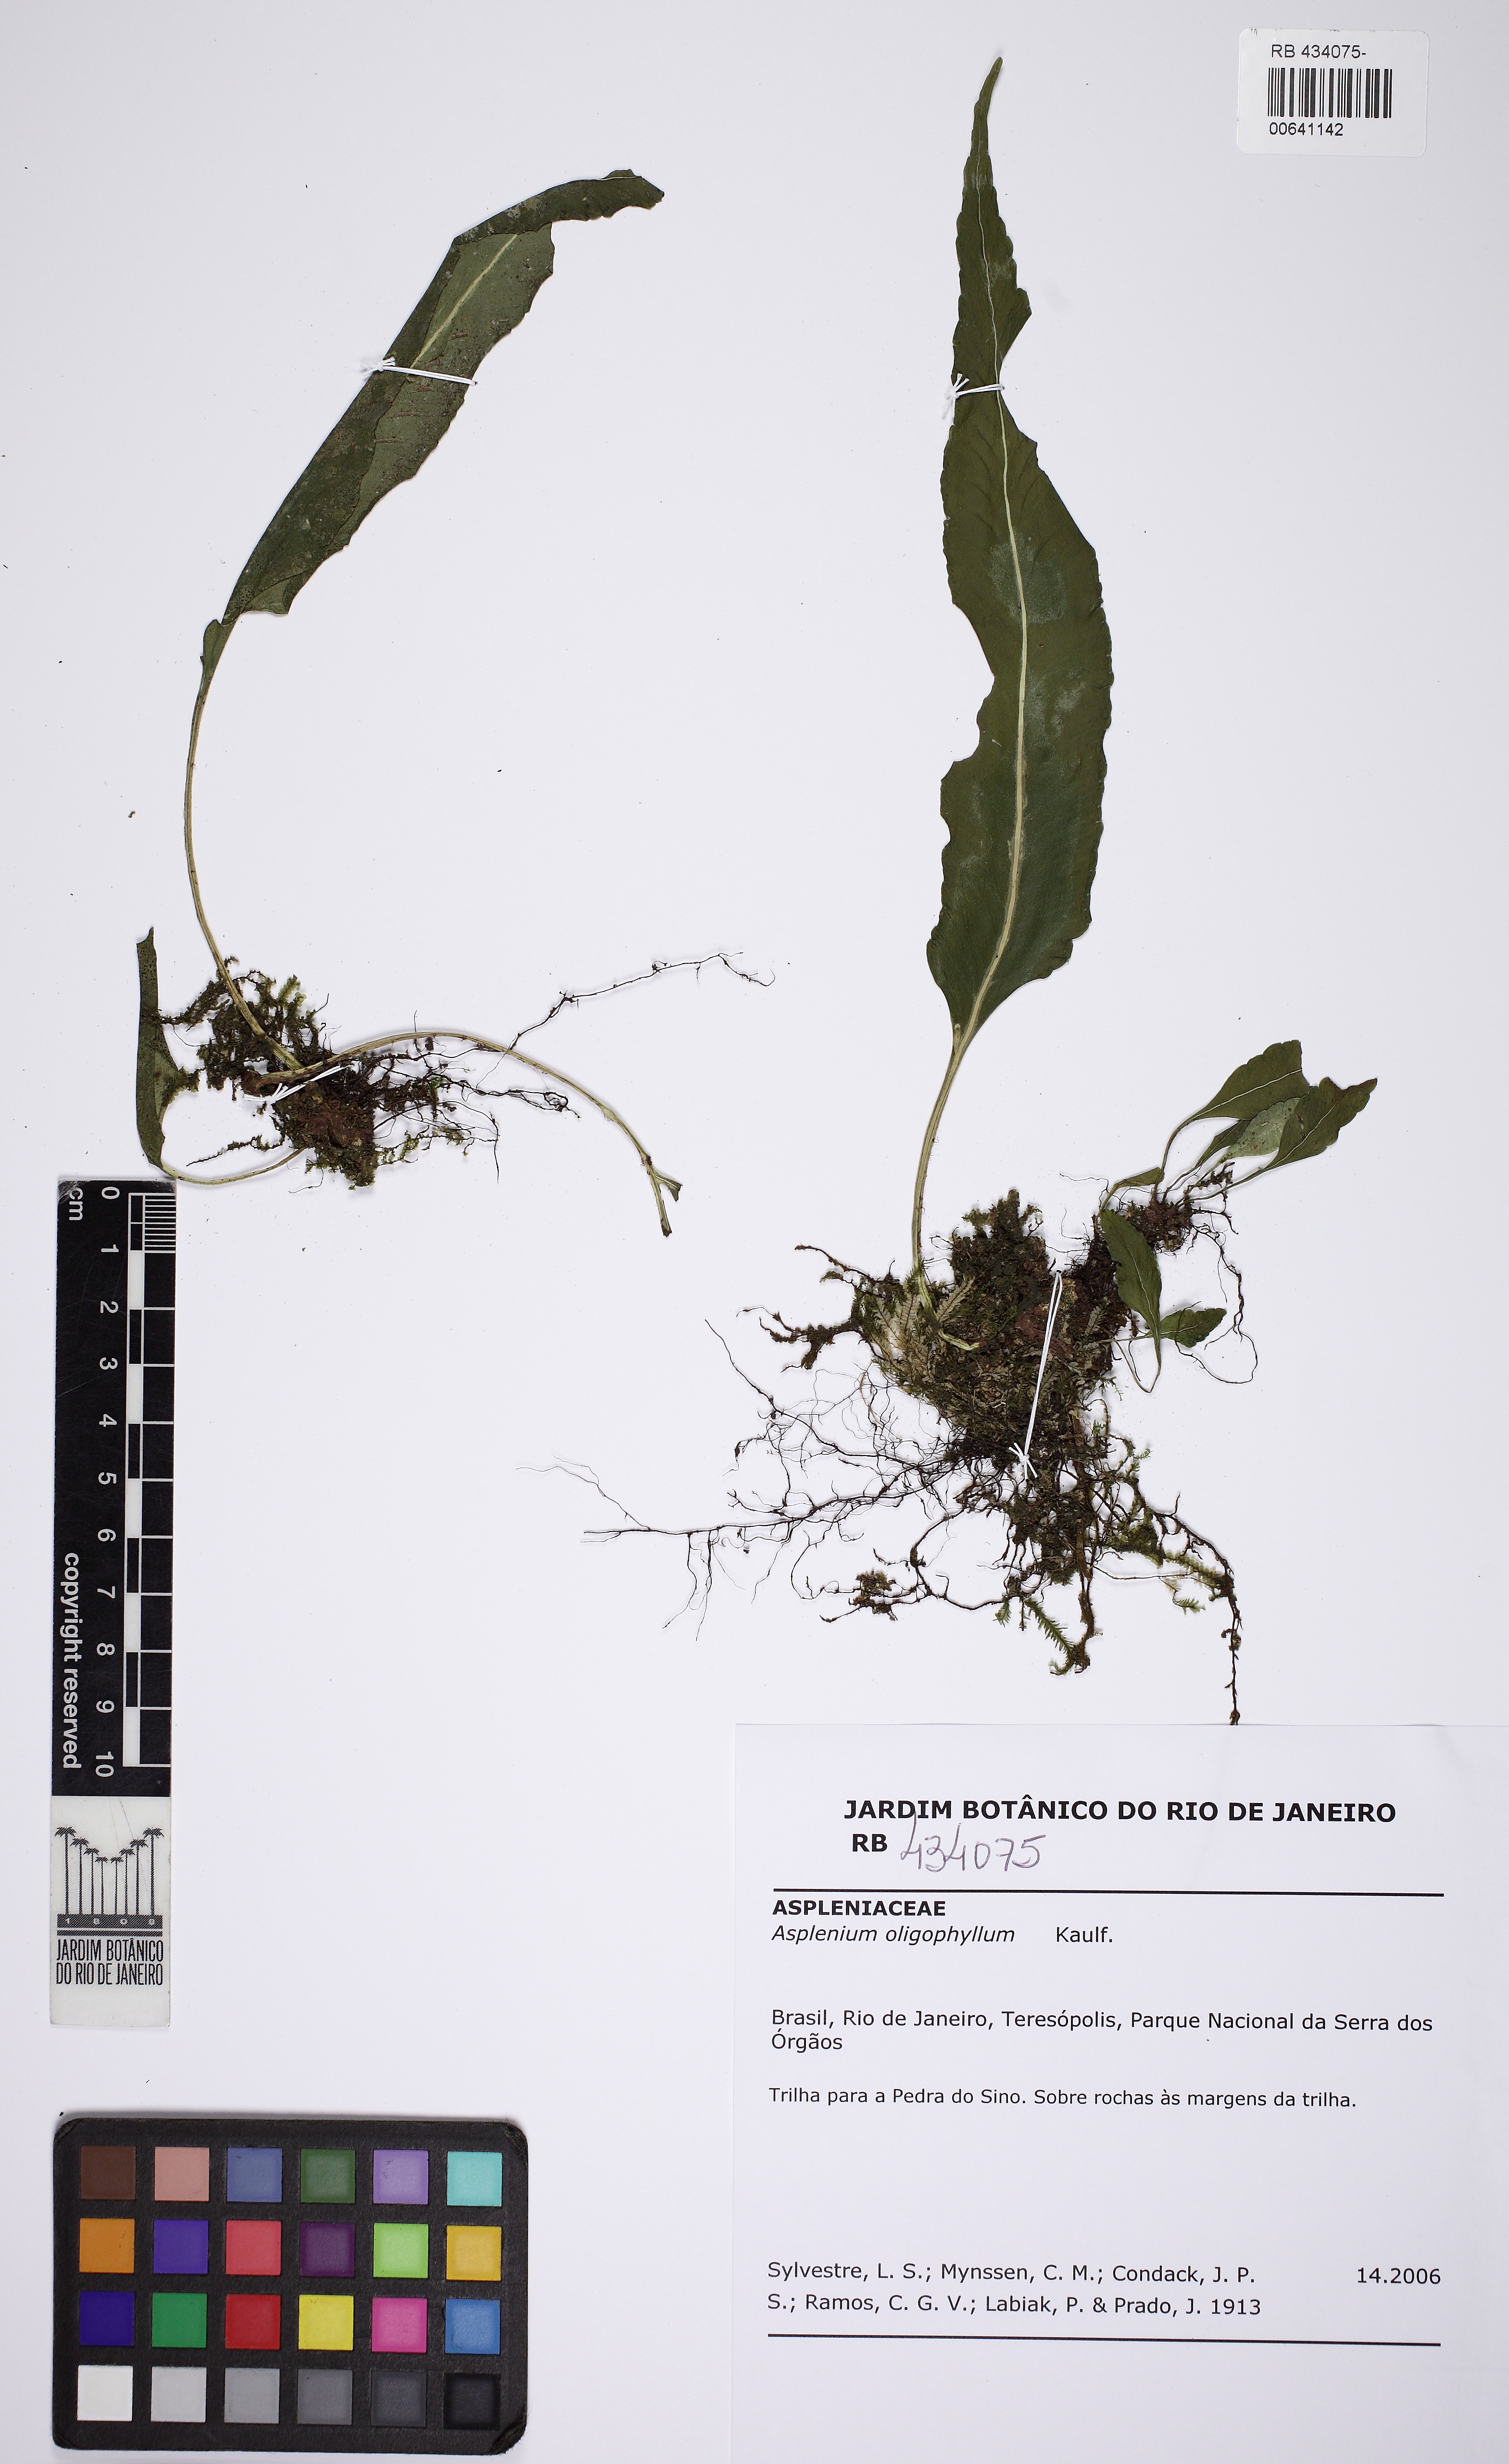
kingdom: Plantae
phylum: Tracheophyta
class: Polypodiopsida
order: Polypodiales
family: Aspleniaceae
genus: Asplenium
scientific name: Asplenium oligophyllum
